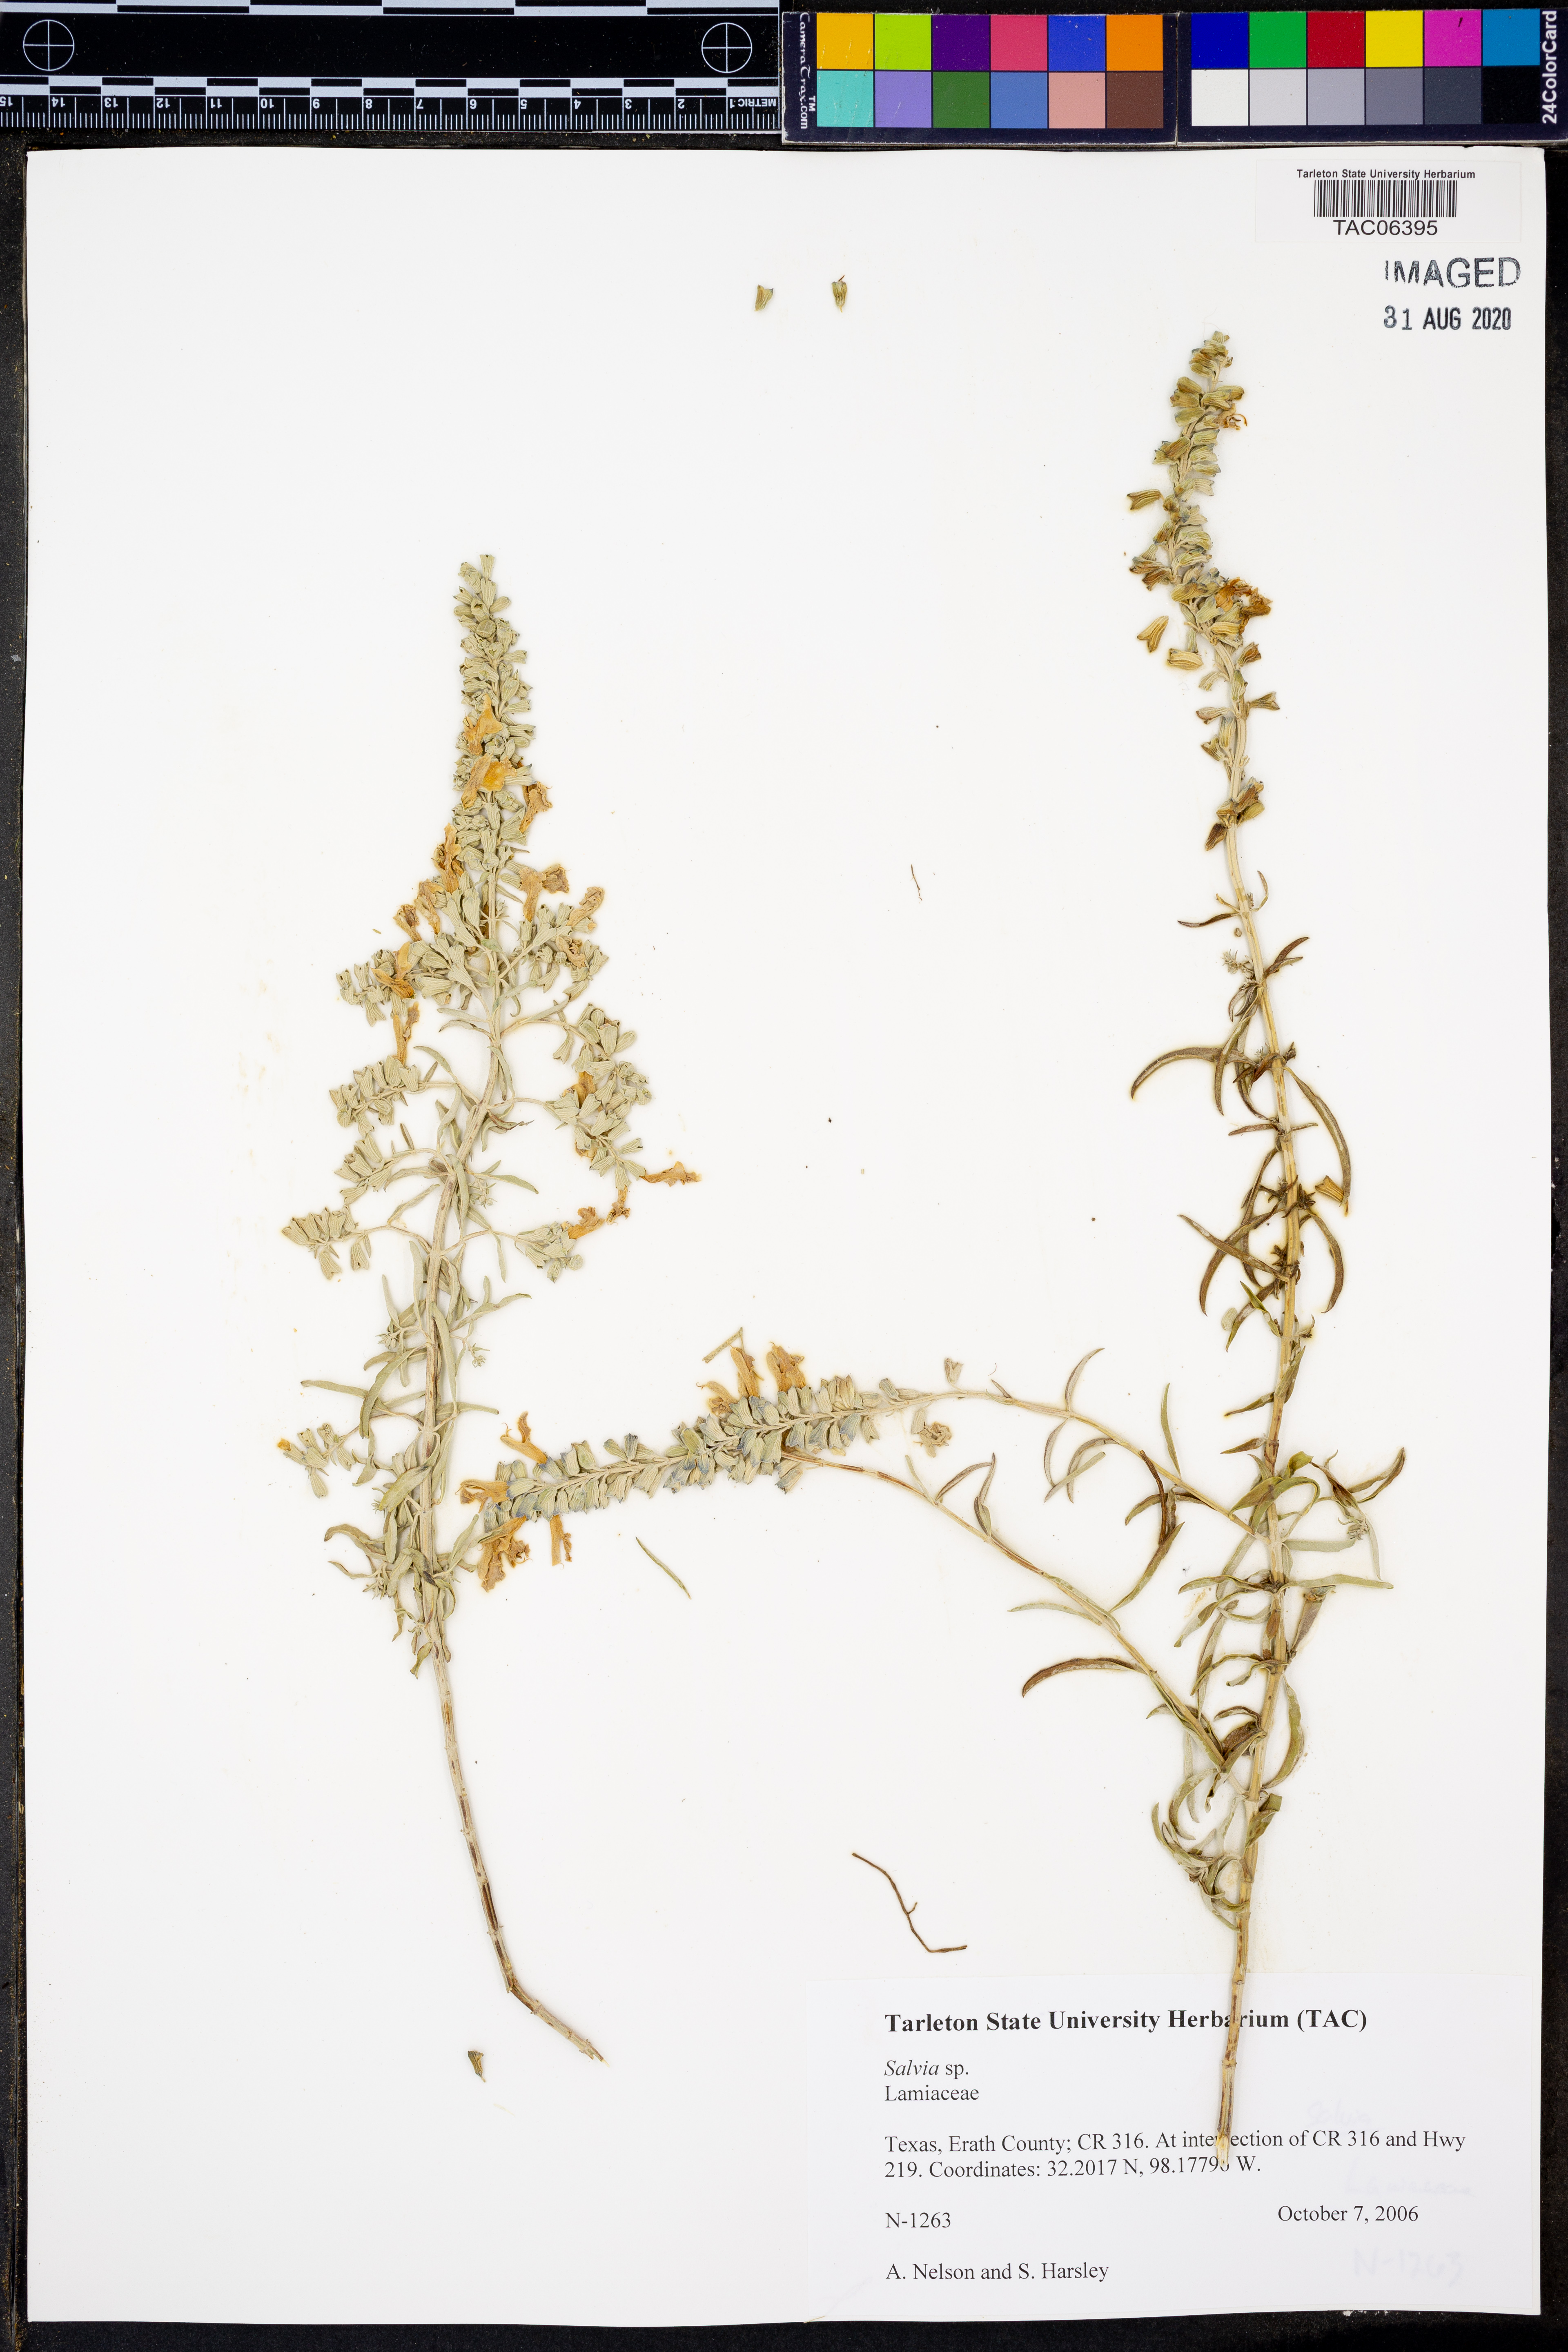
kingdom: Plantae
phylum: Tracheophyta
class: Magnoliopsida
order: Lamiales
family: Lamiaceae
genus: Salvia
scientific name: Salvia
